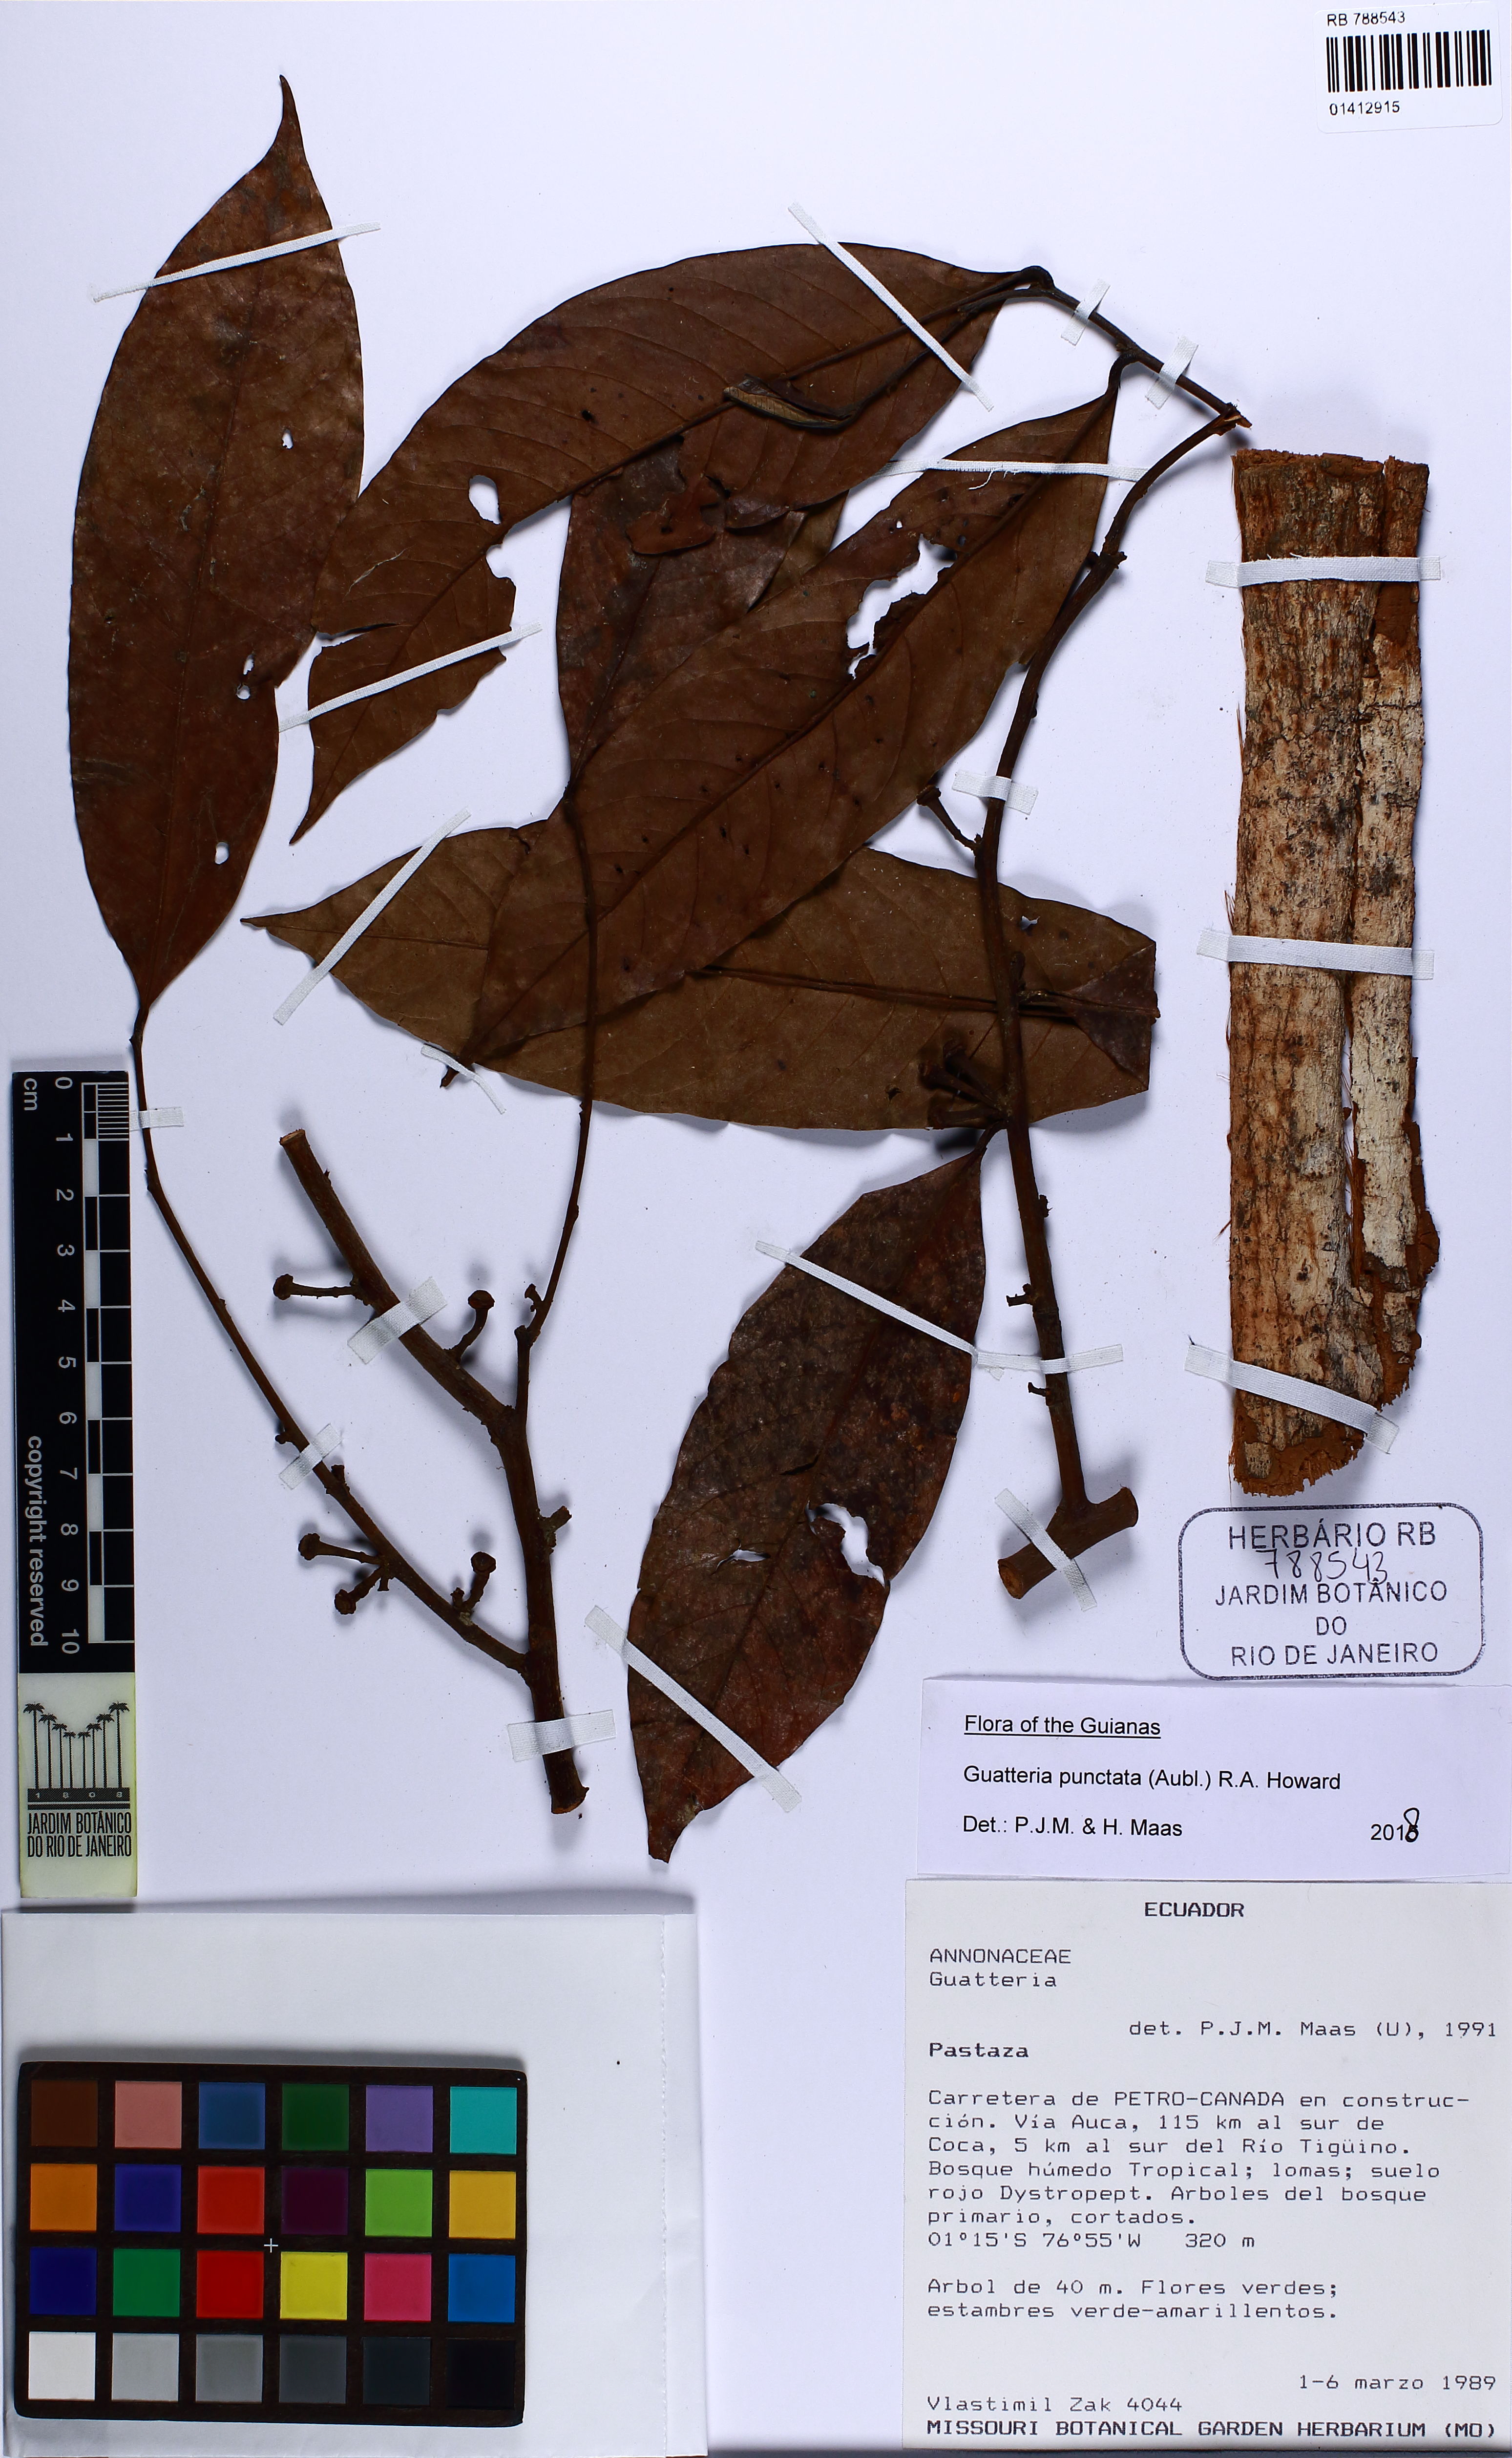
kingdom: Plantae
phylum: Tracheophyta
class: Magnoliopsida
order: Magnoliales
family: Annonaceae
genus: Guatteria
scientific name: Guatteria punctata
